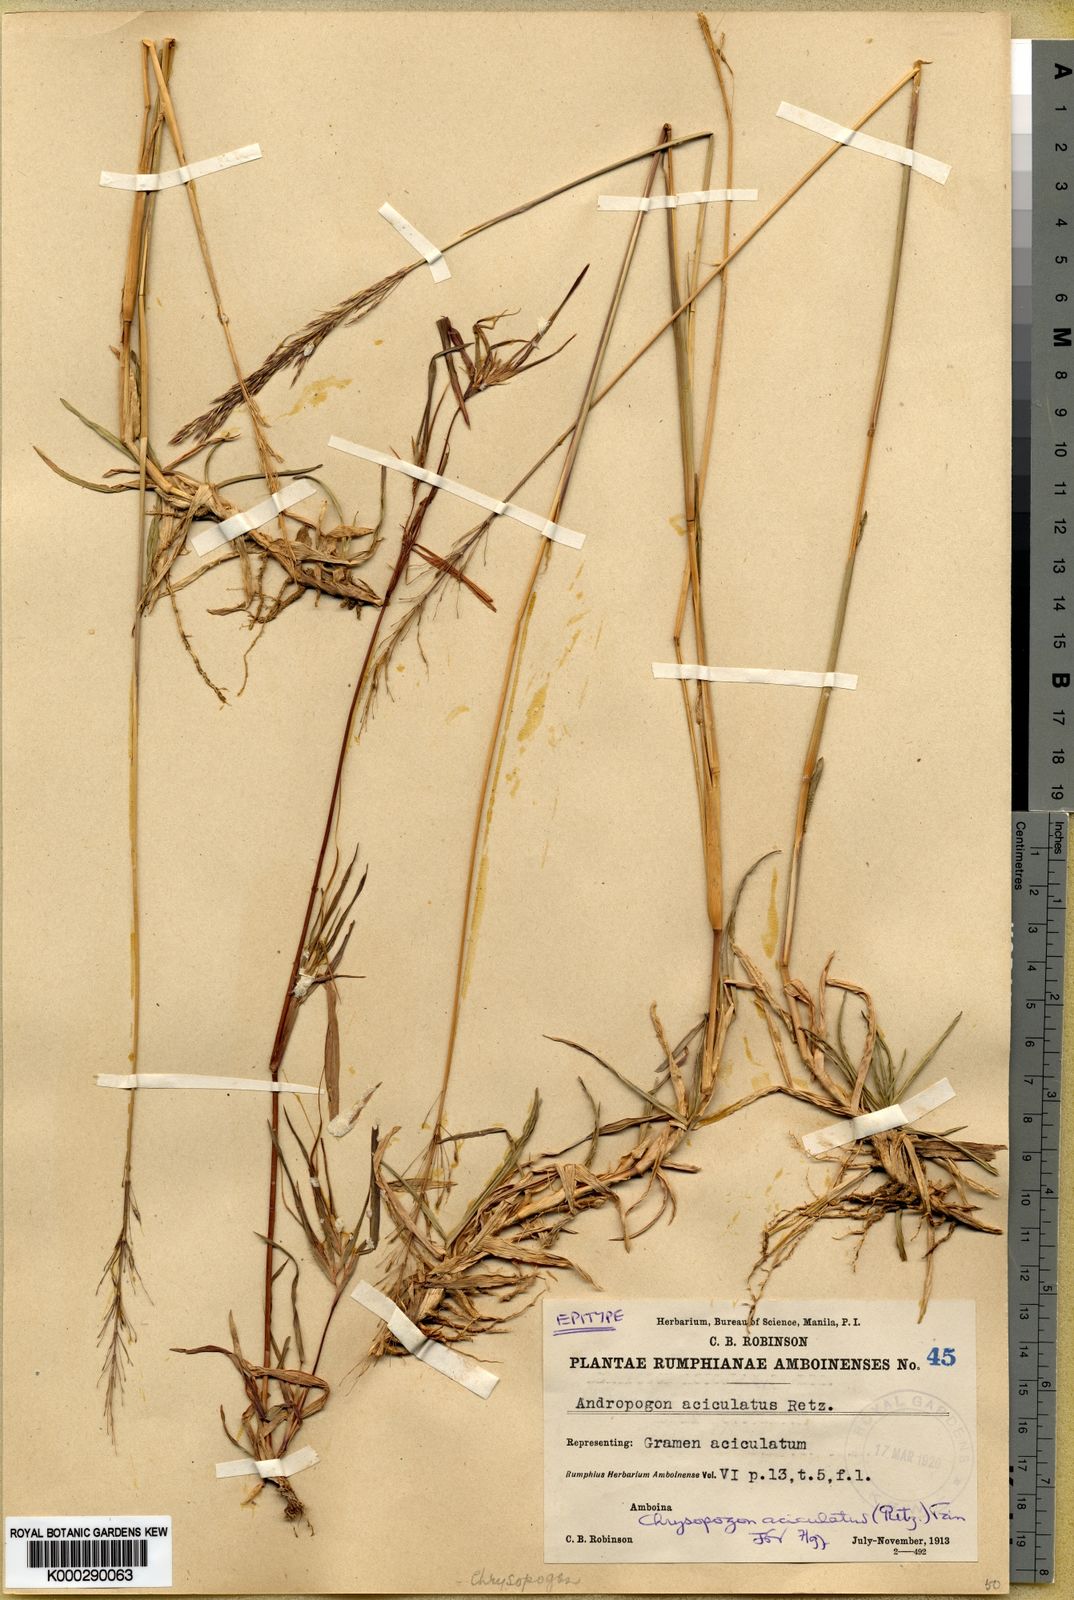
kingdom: Plantae
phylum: Tracheophyta
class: Liliopsida
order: Poales
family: Poaceae
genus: Chrysopogon
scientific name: Chrysopogon aciculatus
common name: Pilipiliula
